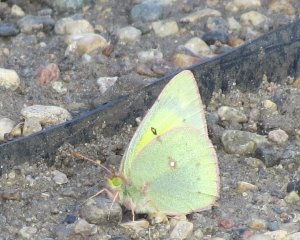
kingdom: Animalia
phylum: Arthropoda
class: Insecta
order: Lepidoptera
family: Pieridae
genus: Colias
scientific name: Colias philodice
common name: Clouded Sulphur
